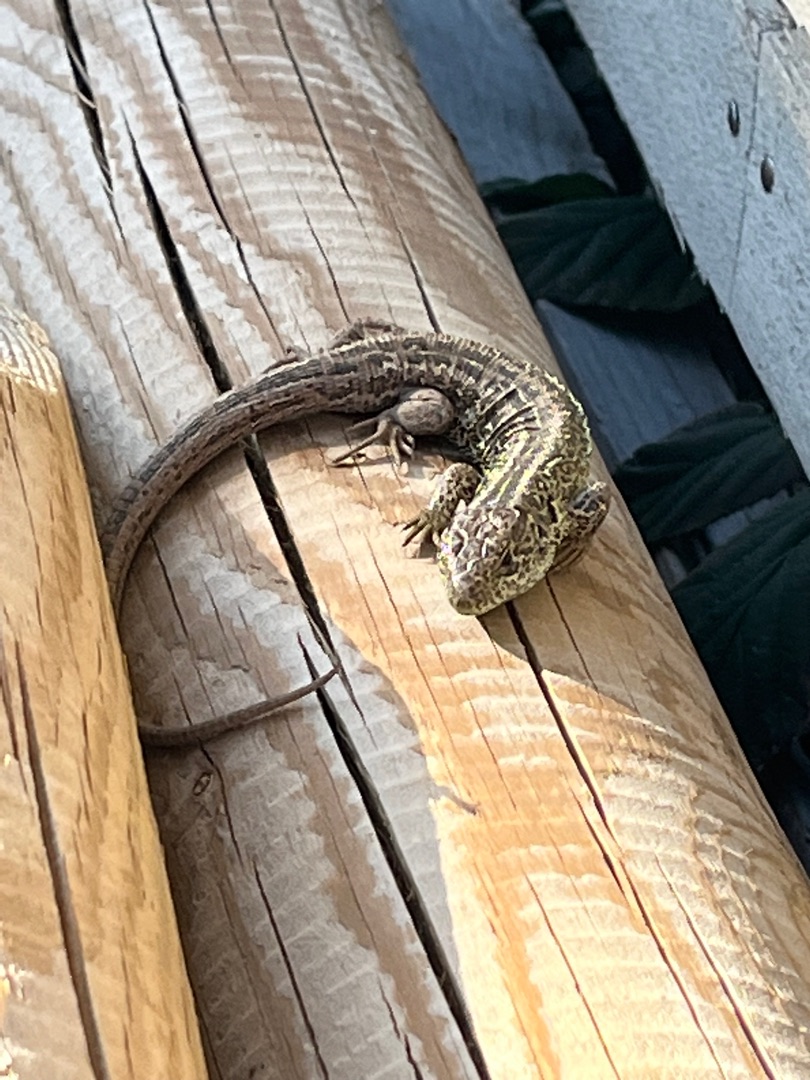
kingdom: Animalia
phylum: Chordata
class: Squamata
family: Lacertidae
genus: Lacerta
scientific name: Lacerta agilis
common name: Markfirben
